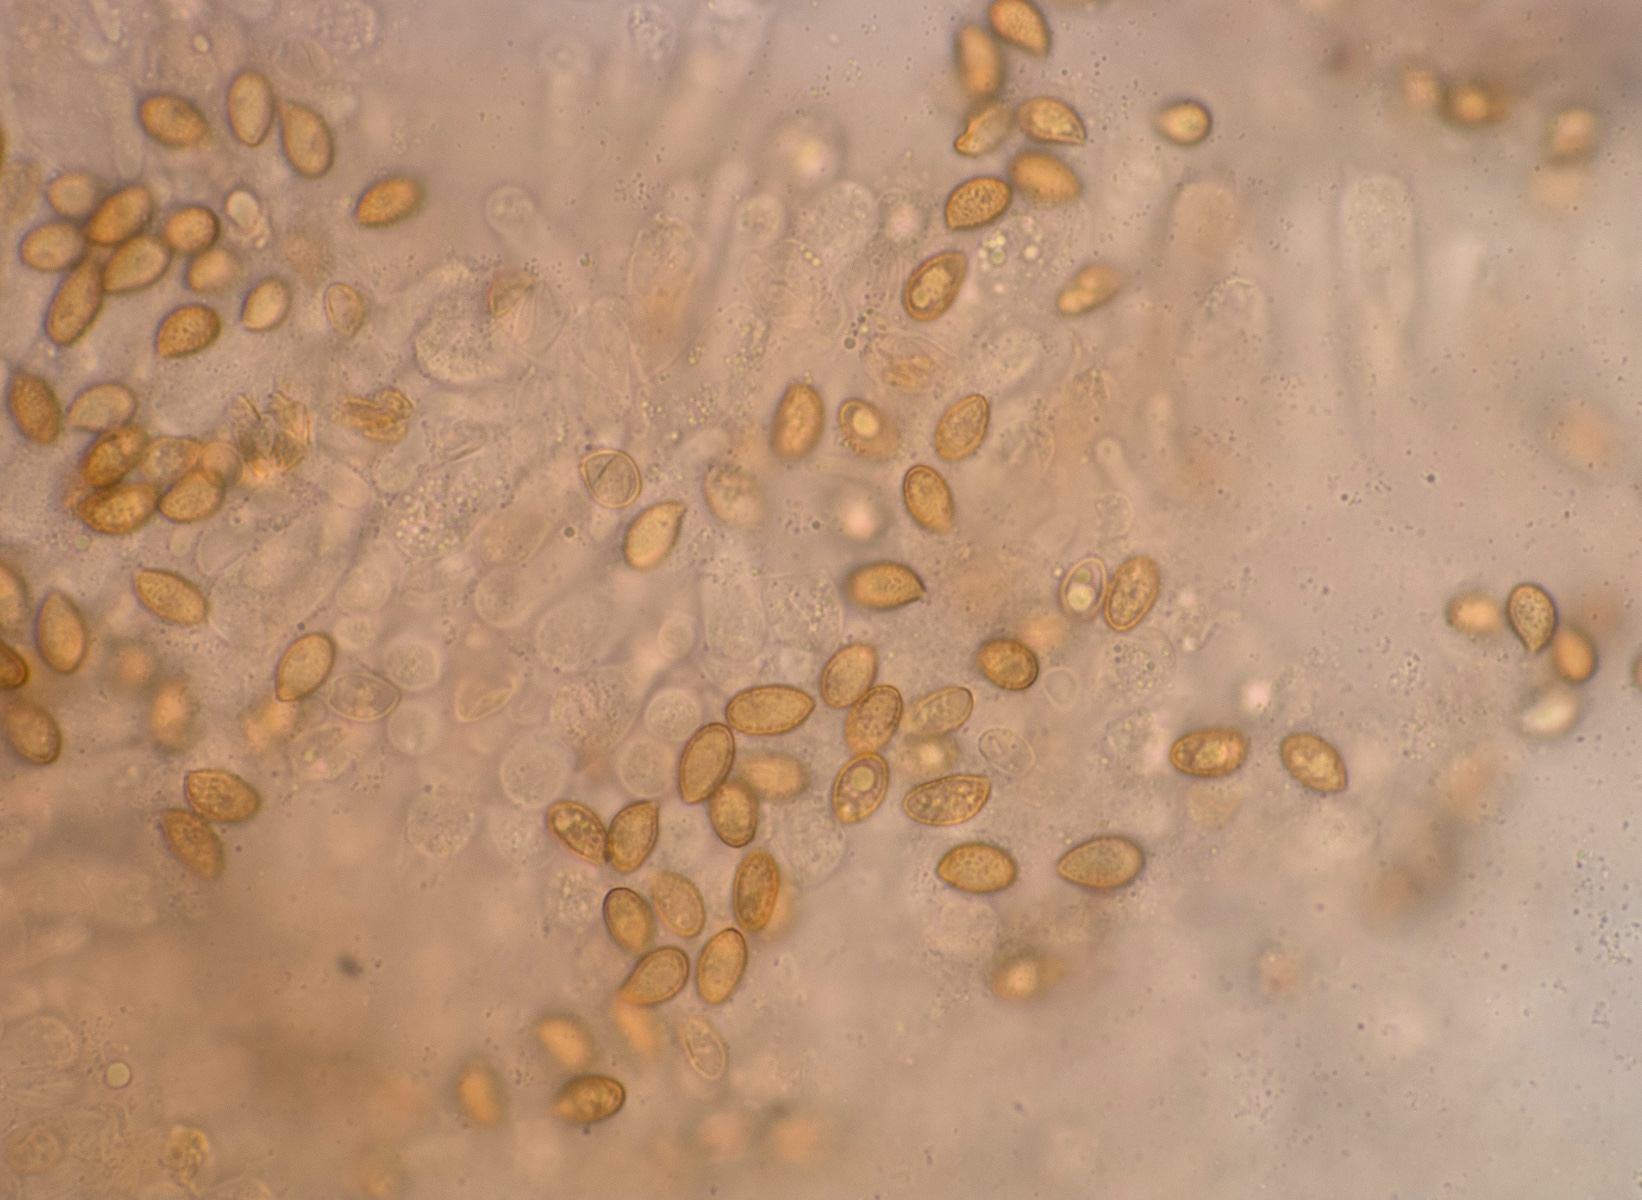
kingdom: Fungi
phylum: Basidiomycota
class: Agaricomycetes
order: Agaricales
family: Cortinariaceae
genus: Cortinarius
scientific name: Cortinarius dolabratus
